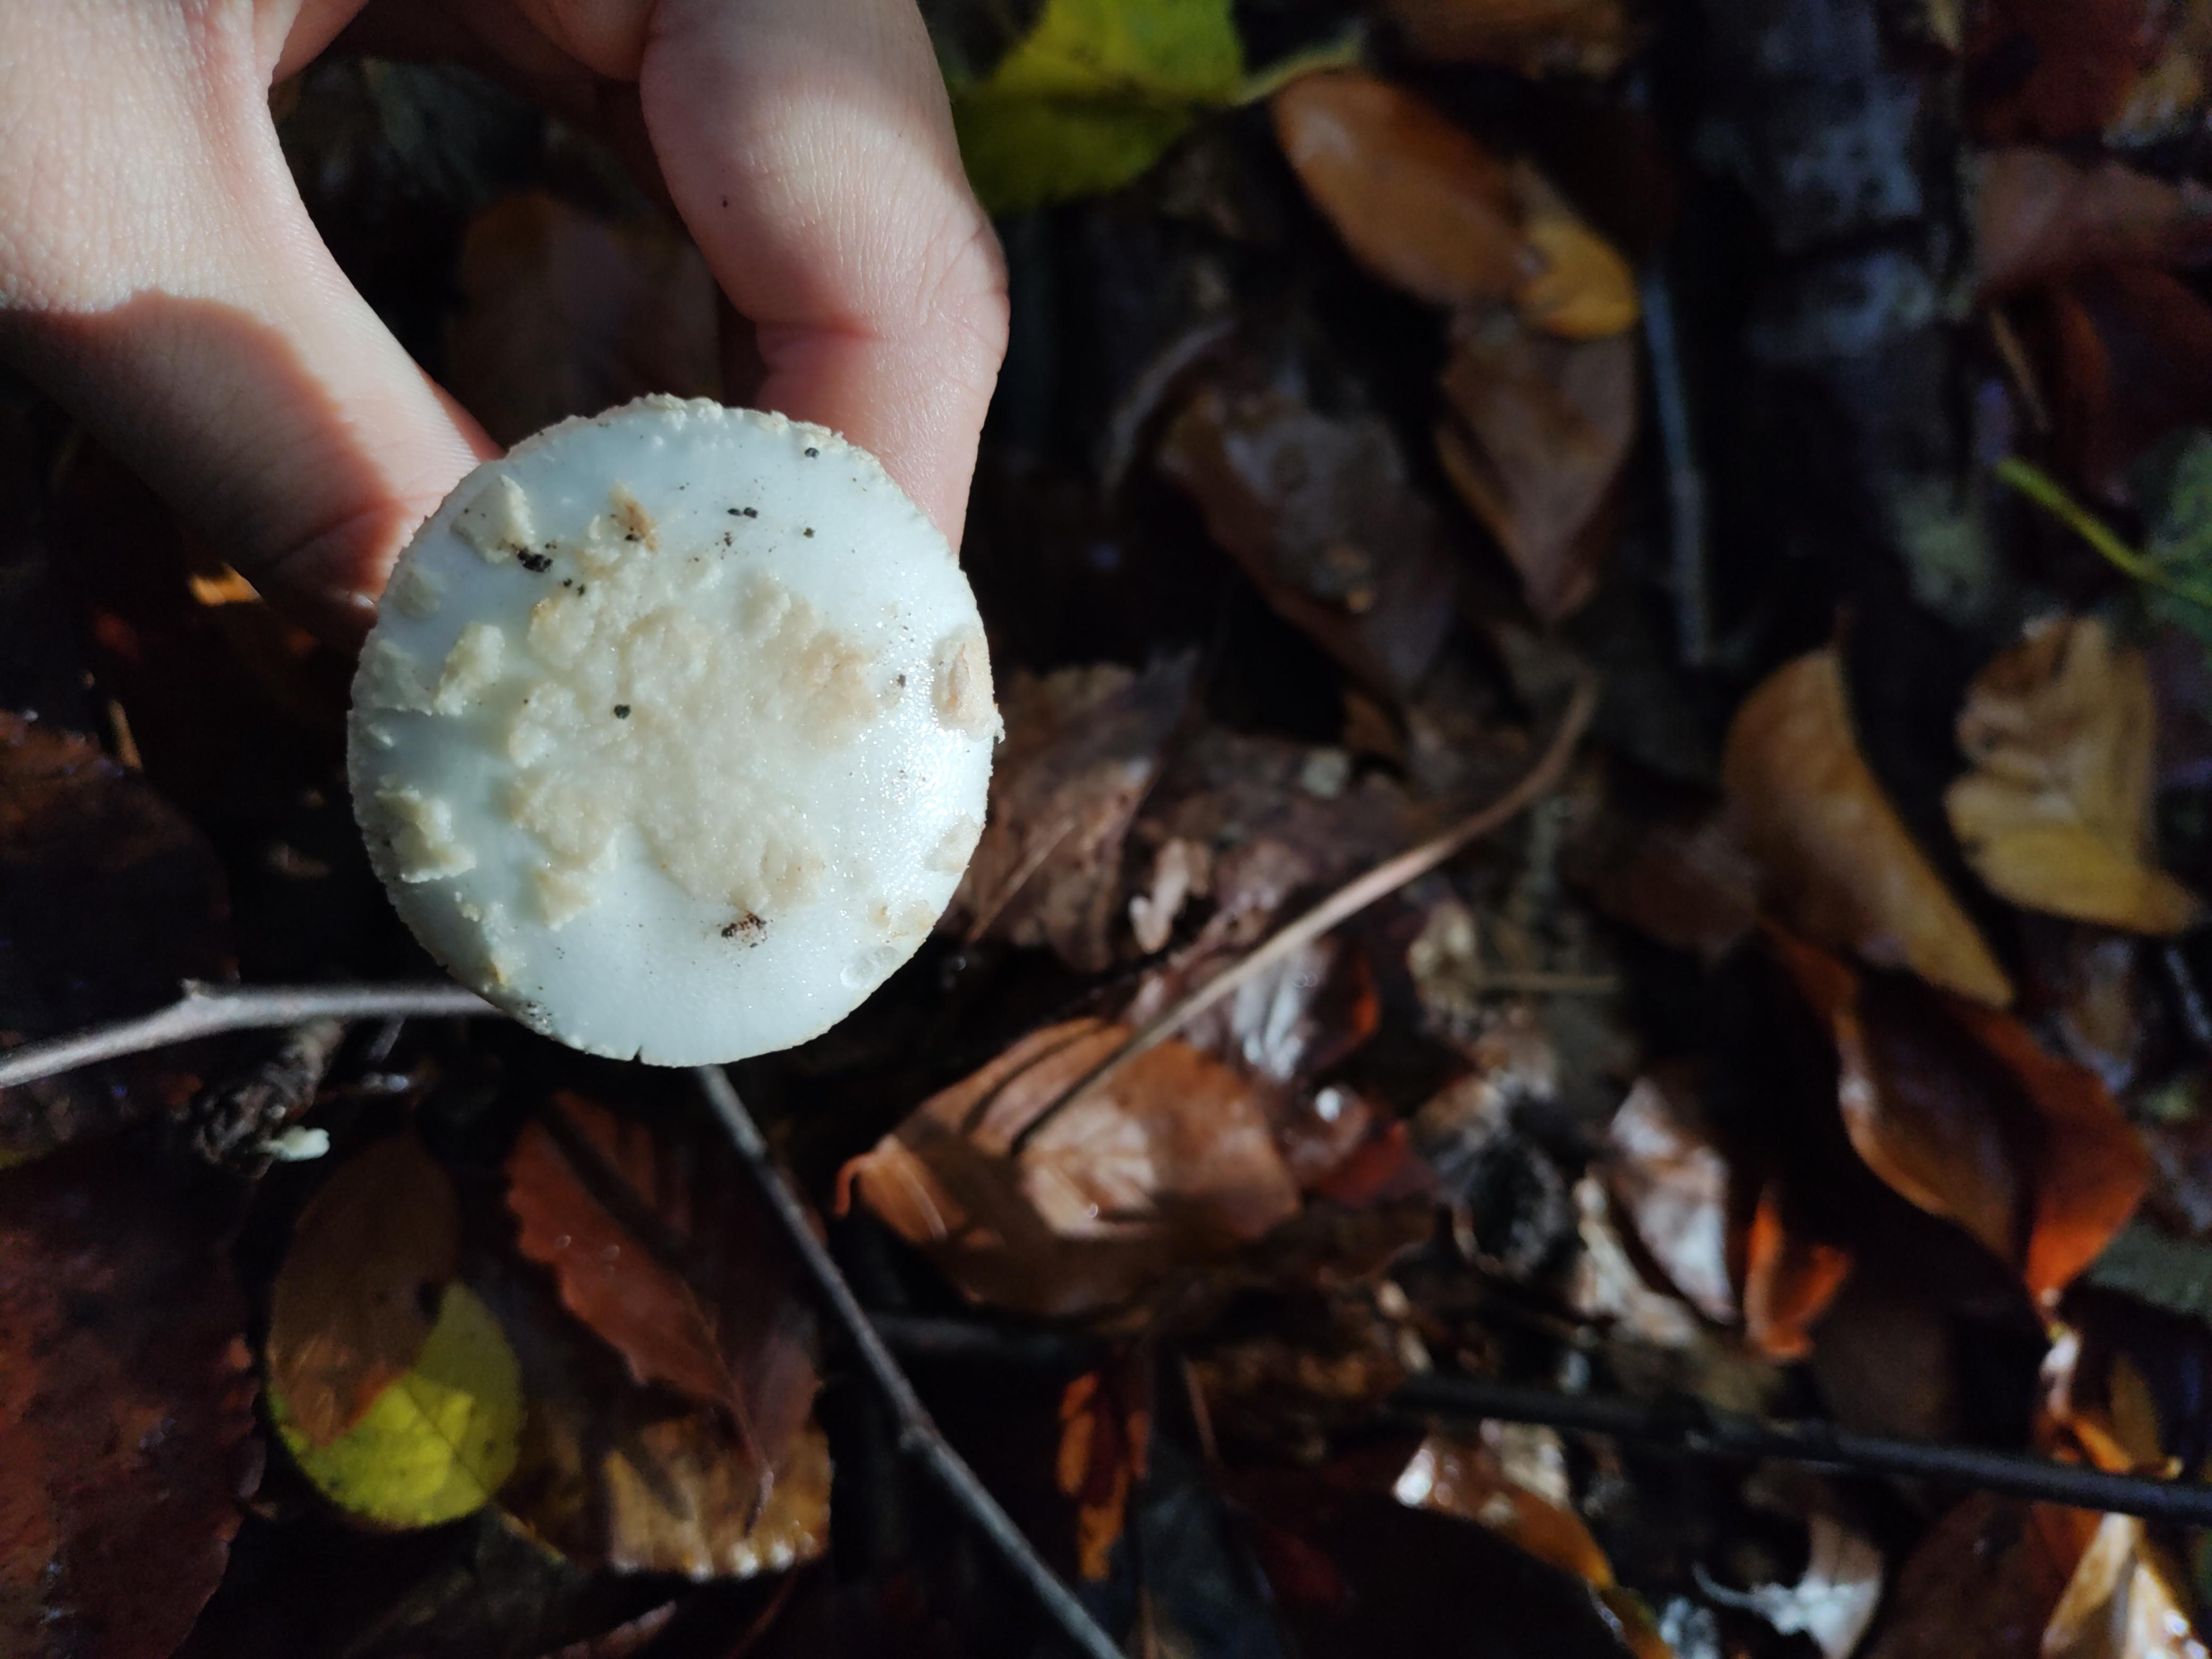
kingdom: Fungi
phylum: Basidiomycota
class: Agaricomycetes
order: Agaricales
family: Amanitaceae
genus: Amanita
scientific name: Amanita citrina
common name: kugleknoldet fluesvamp
